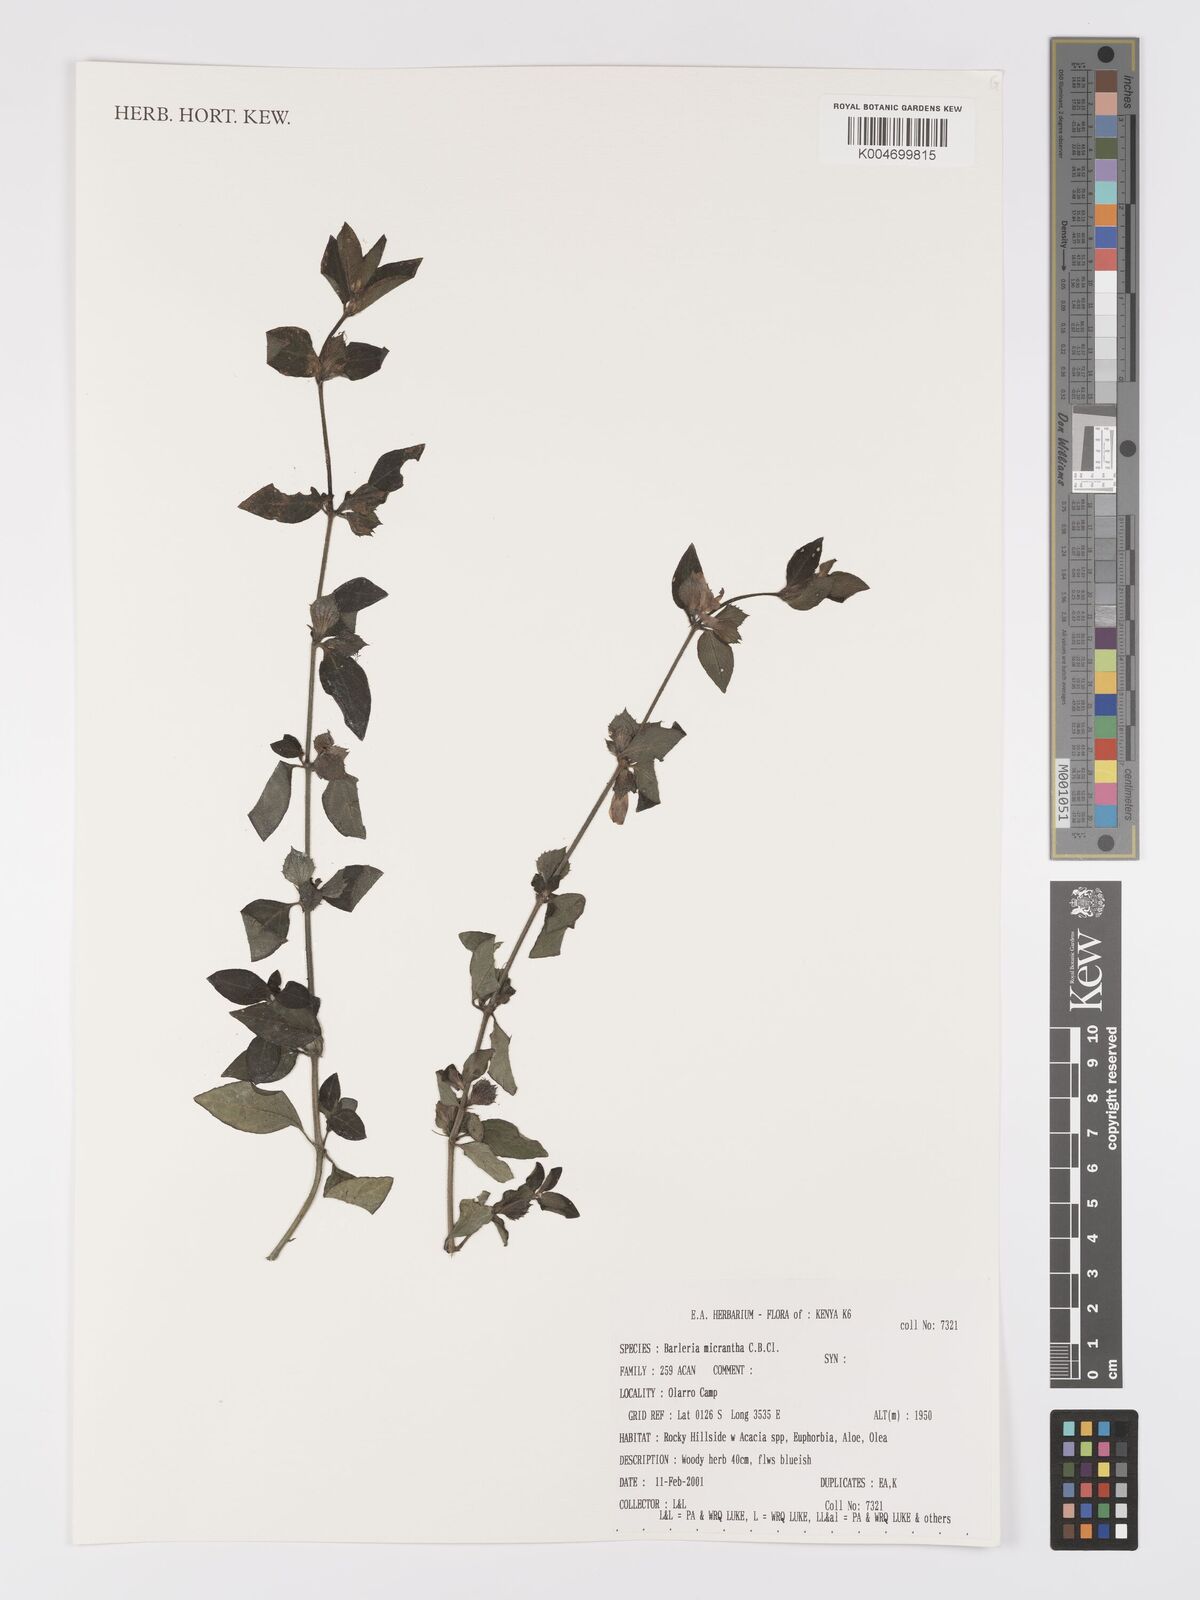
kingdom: Plantae
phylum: Tracheophyta
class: Magnoliopsida
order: Lamiales
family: Acanthaceae
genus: Barleria
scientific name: Barleria ventricosa
